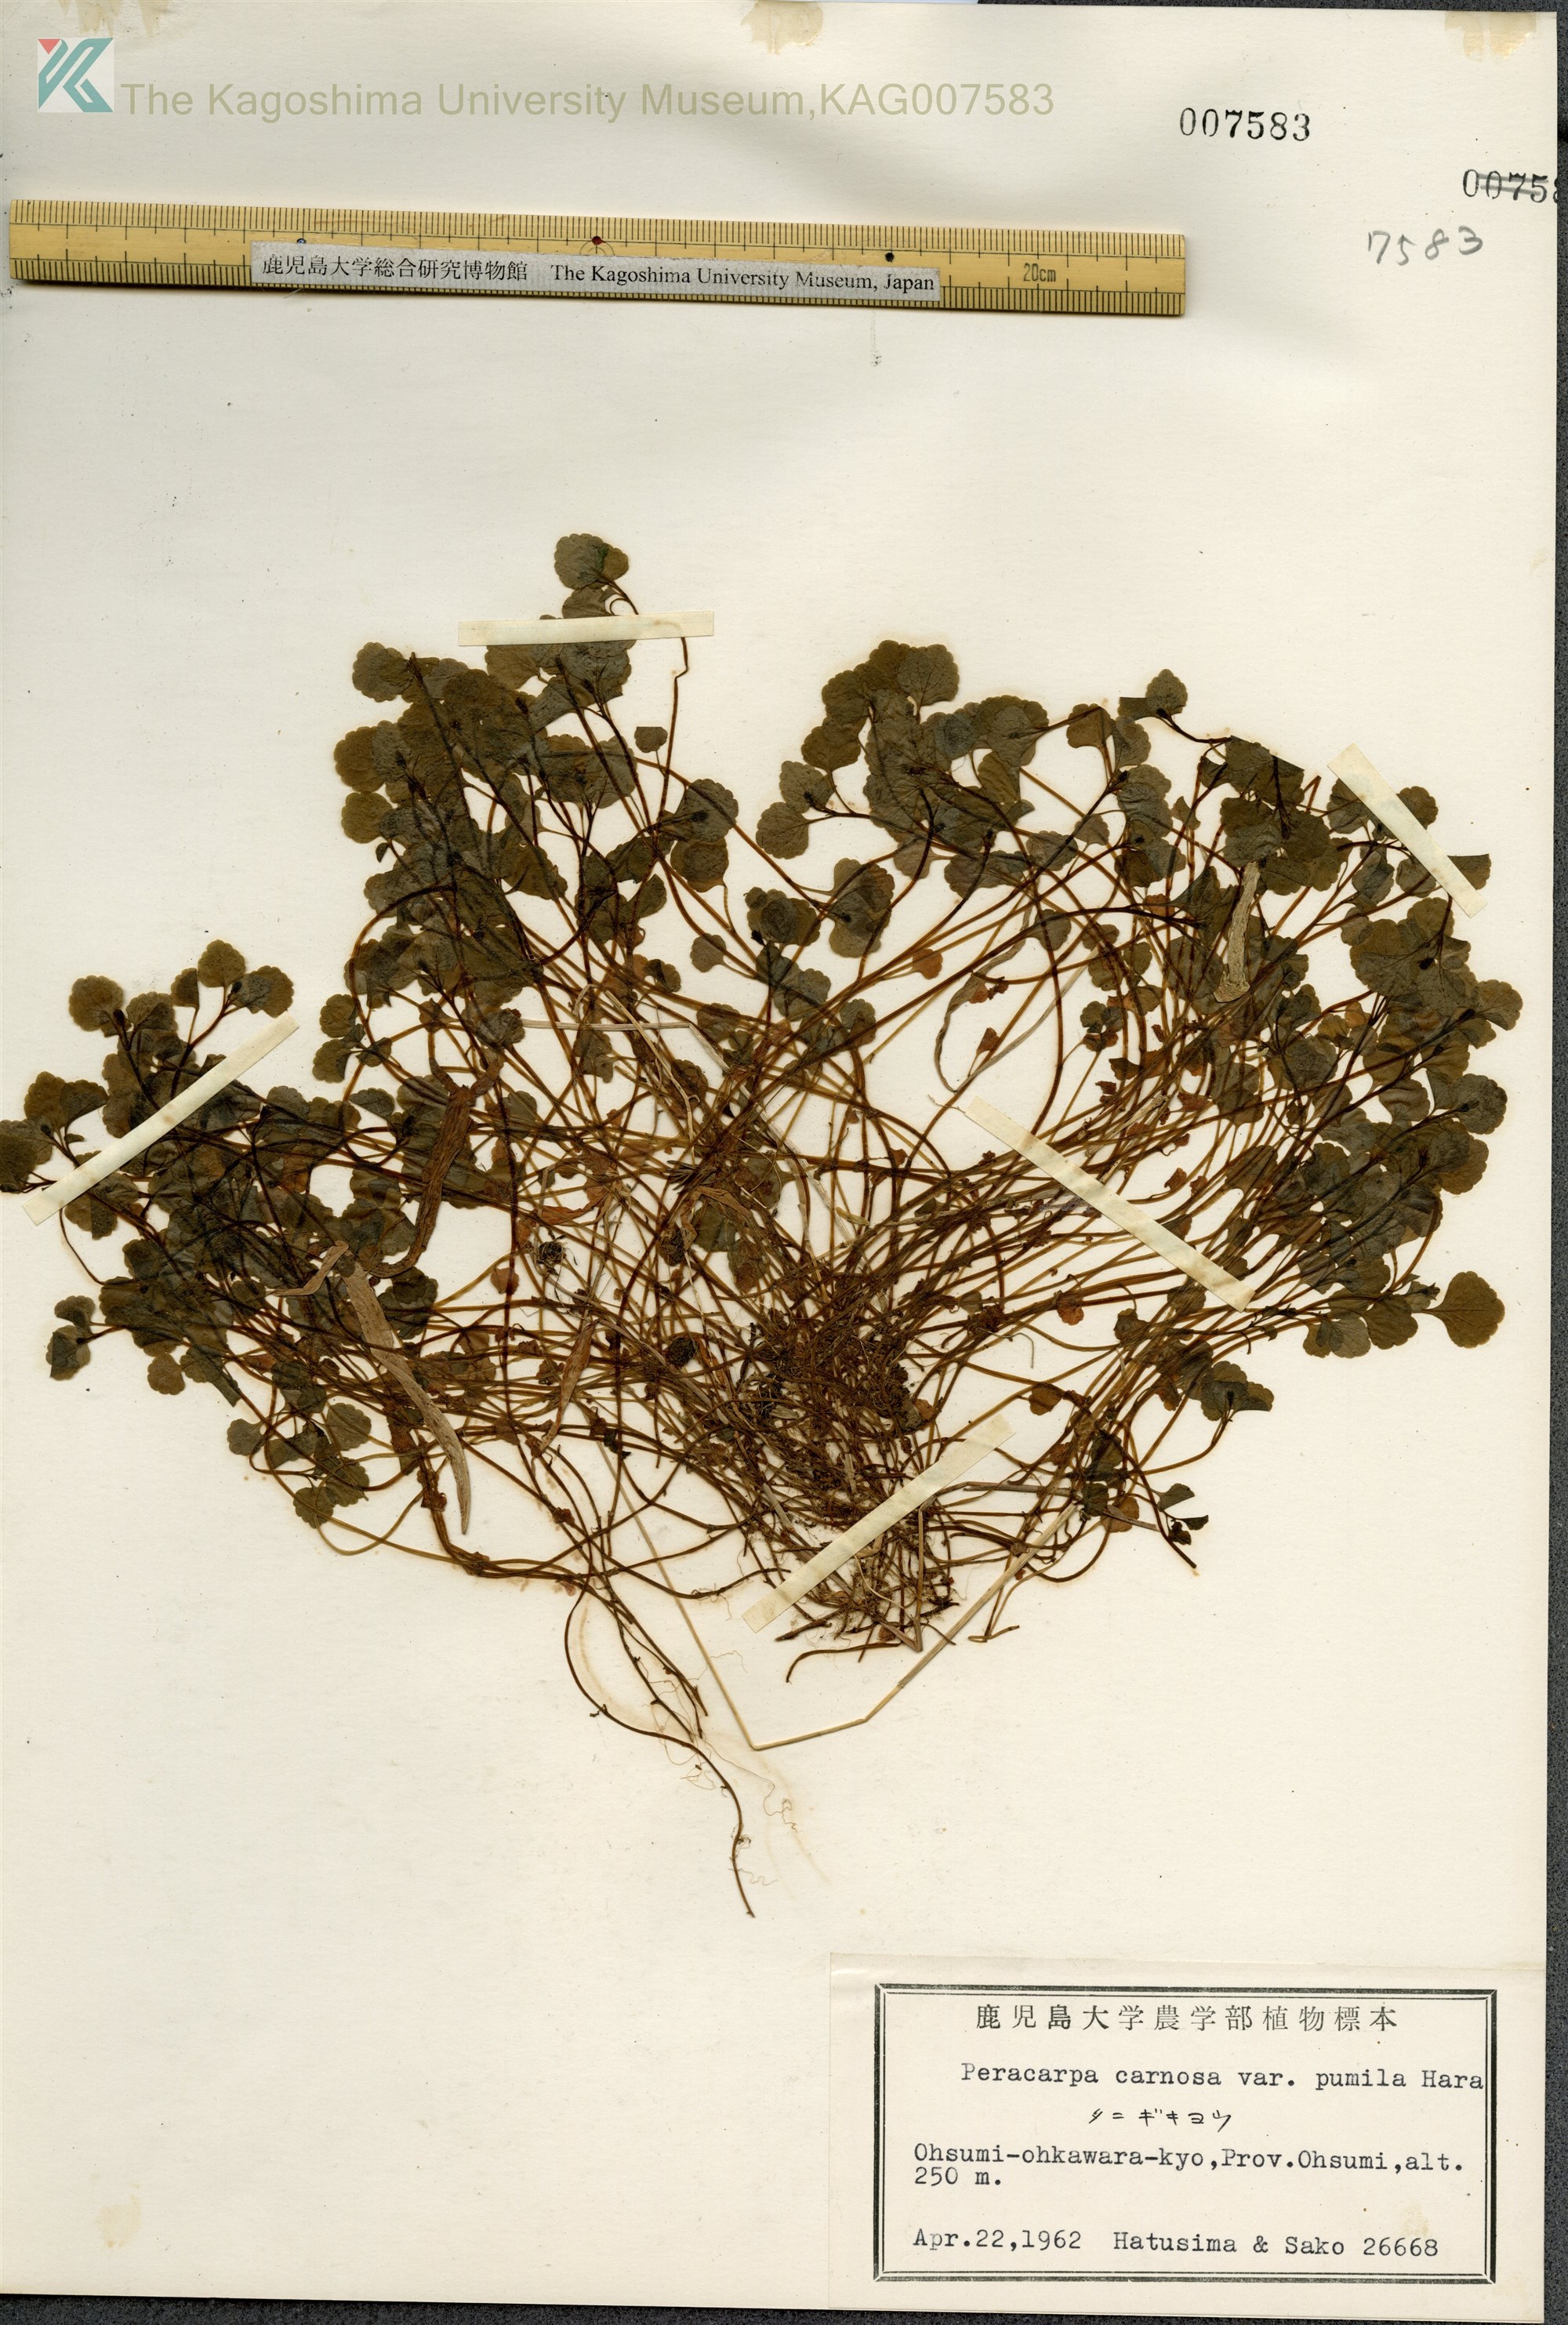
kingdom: Plantae
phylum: Tracheophyta
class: Magnoliopsida
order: Asterales
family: Campanulaceae
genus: Peracarpa
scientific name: Peracarpa carnosa
